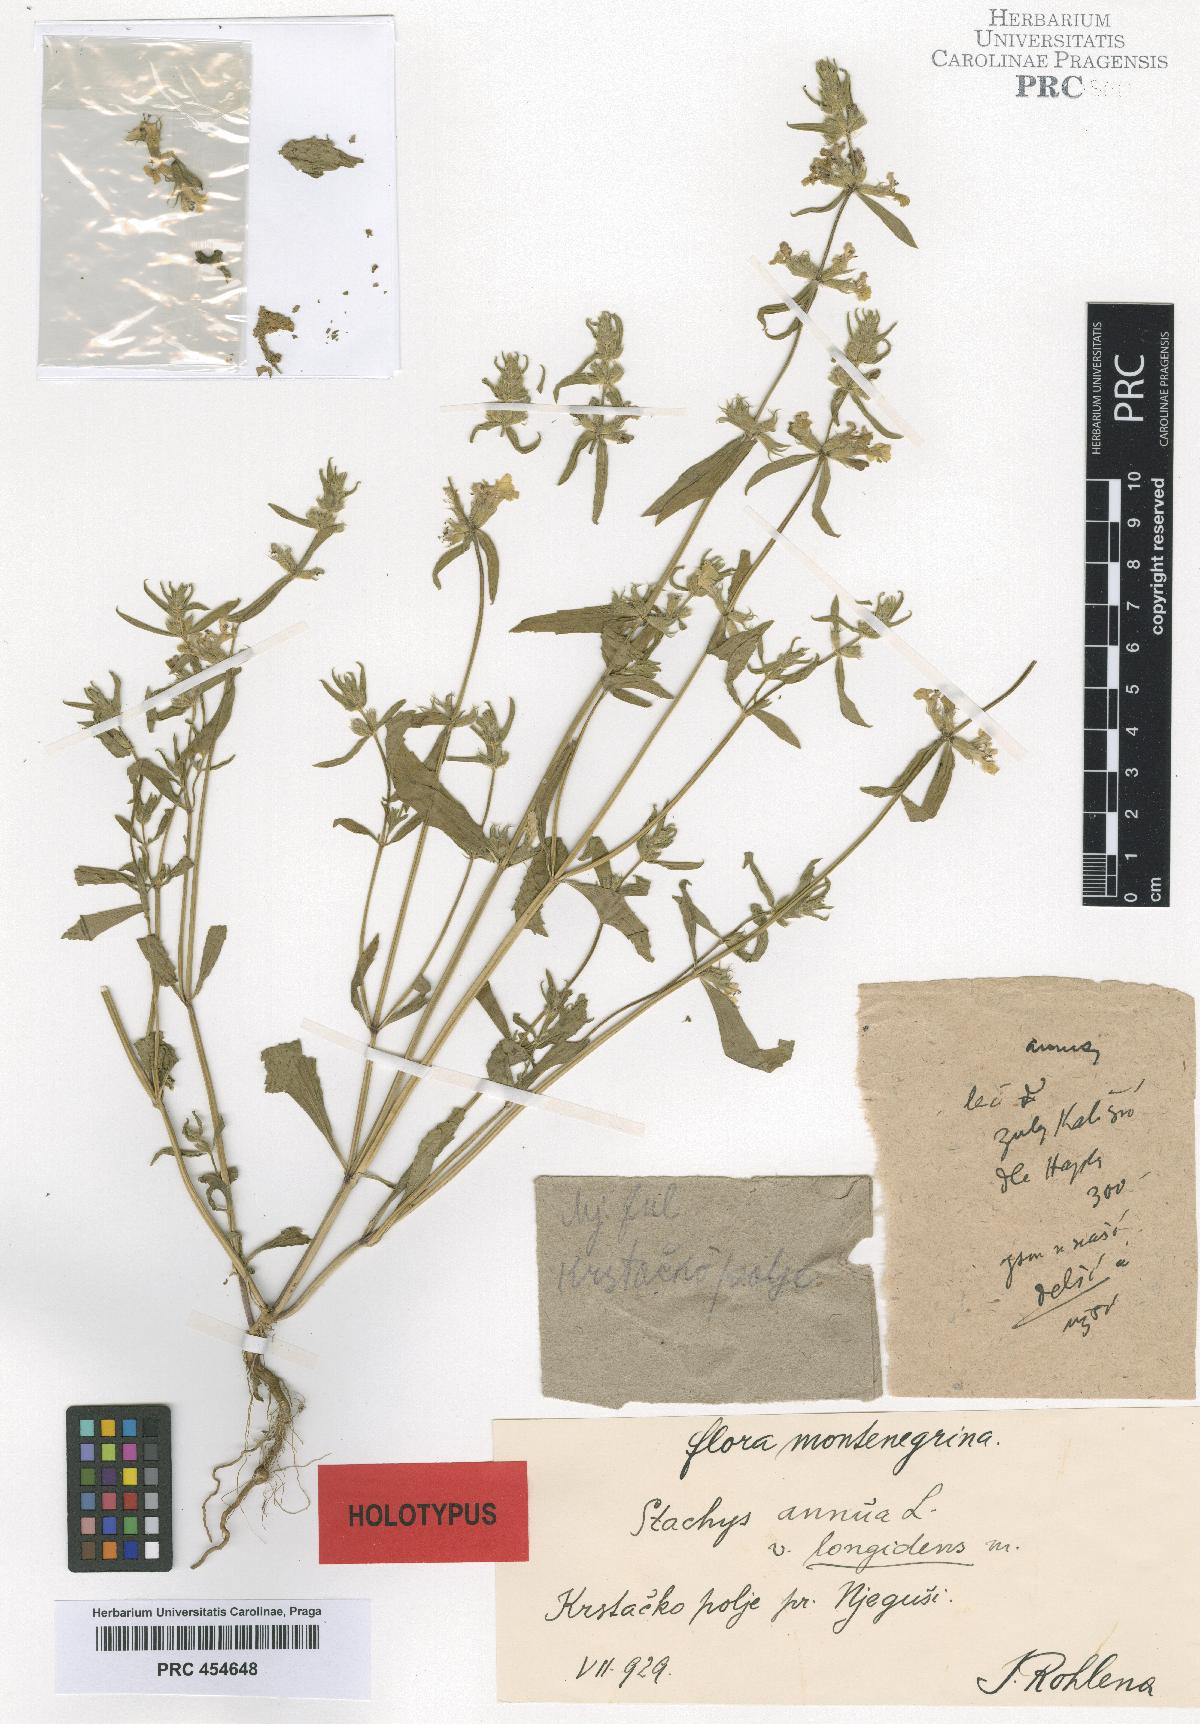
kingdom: Plantae
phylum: Tracheophyta
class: Magnoliopsida
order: Lamiales
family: Lamiaceae
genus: Stachys
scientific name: Stachys annua
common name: Annual yellow-woundwort
